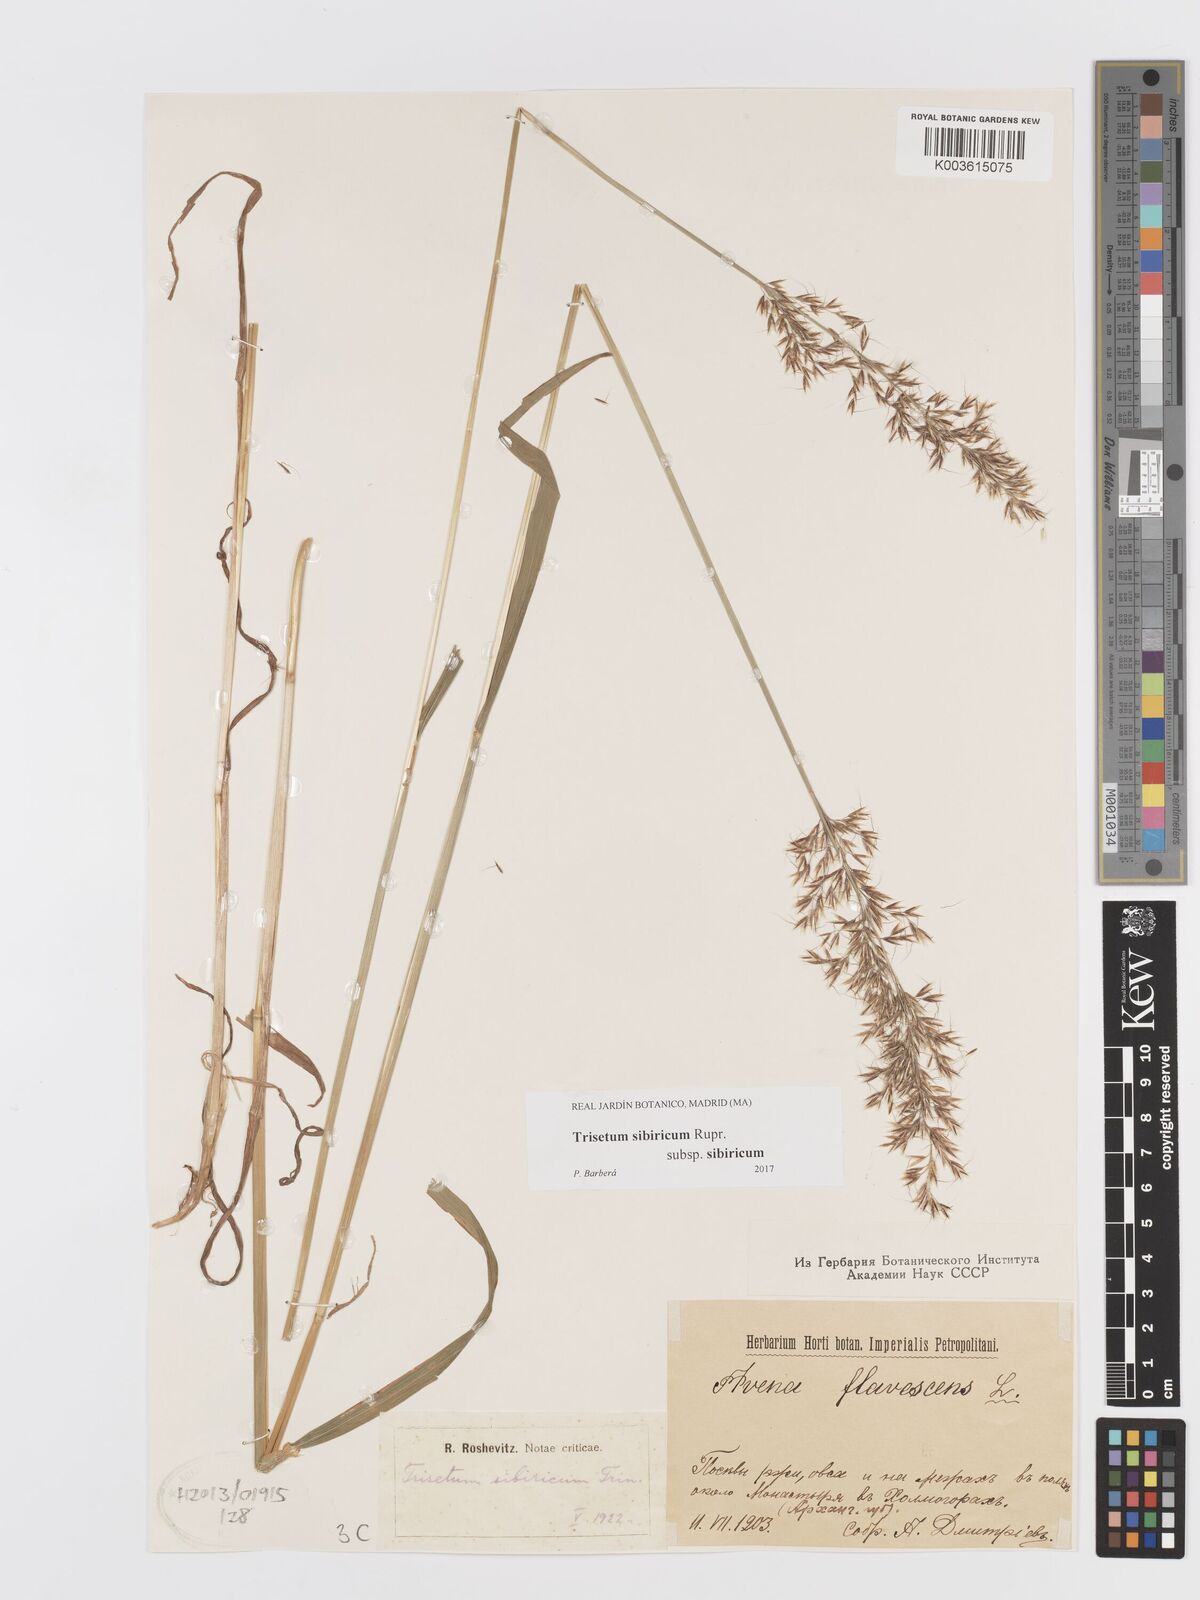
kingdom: Plantae
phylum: Tracheophyta
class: Liliopsida
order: Poales
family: Poaceae
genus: Sibirotrisetum
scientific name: Sibirotrisetum sibiricum
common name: Siberian false oat
